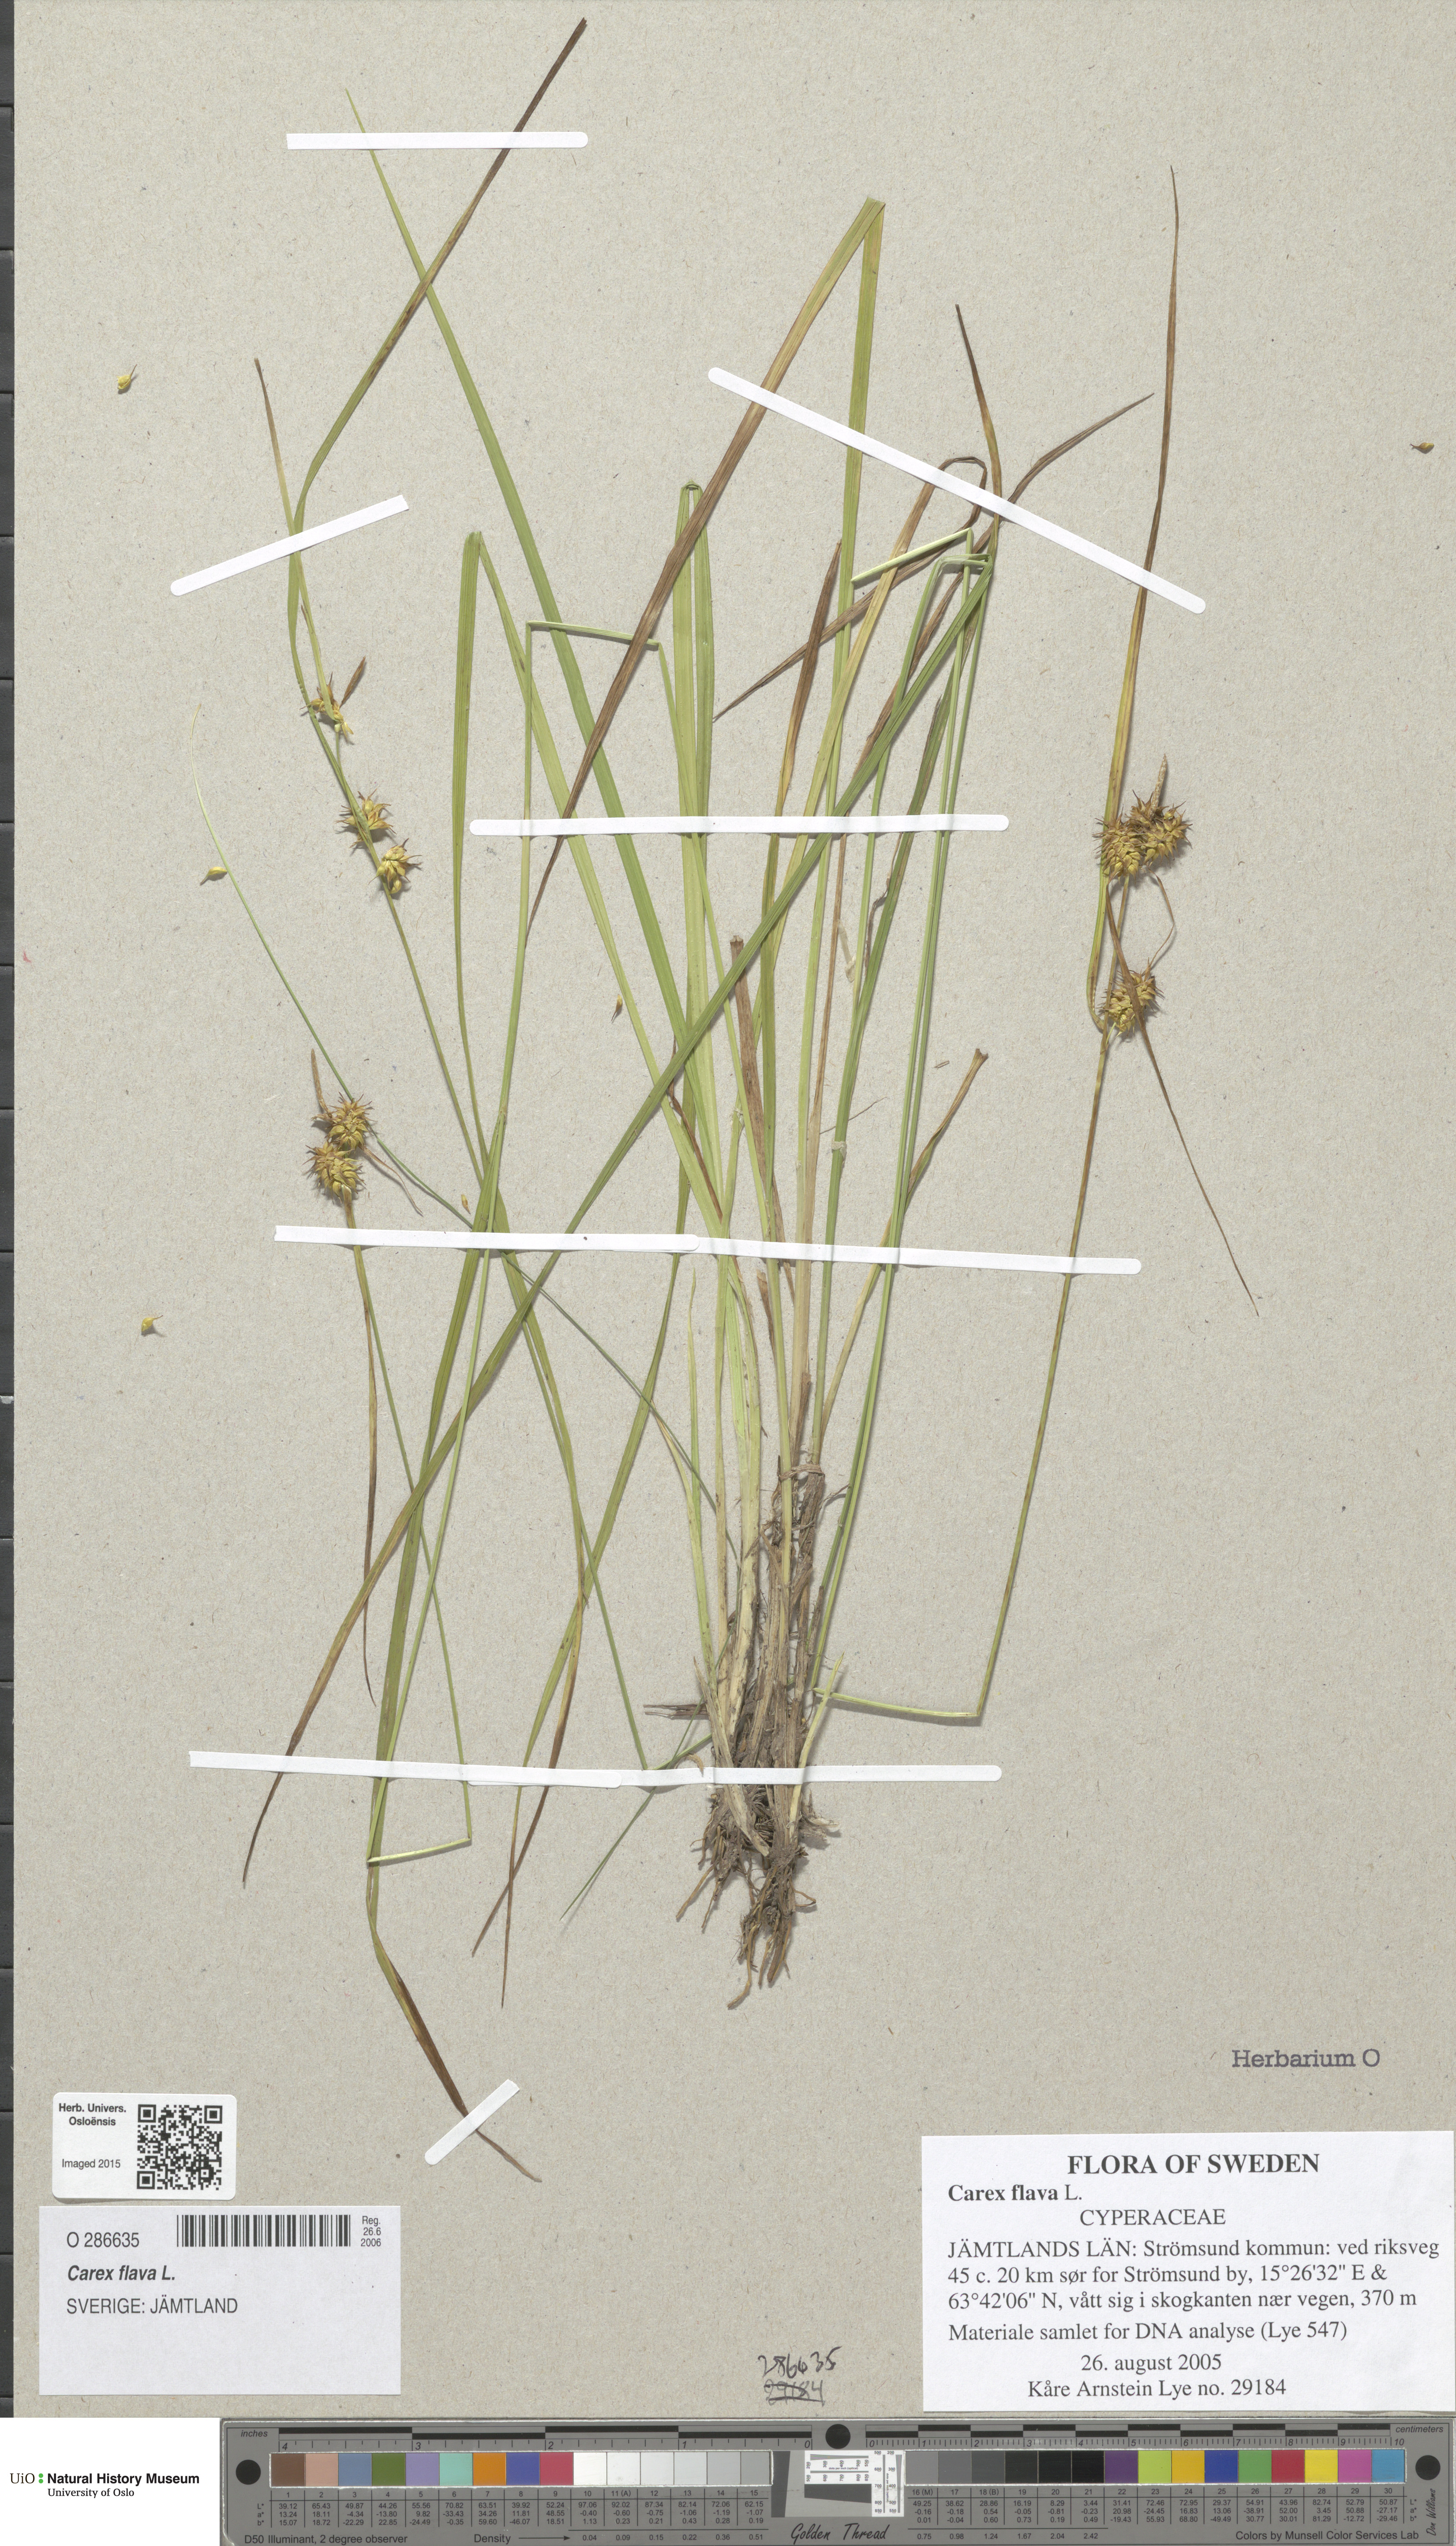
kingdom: Plantae
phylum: Tracheophyta
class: Liliopsida
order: Poales
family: Cyperaceae
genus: Carex
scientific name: Carex flava
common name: Large yellow-sedge
